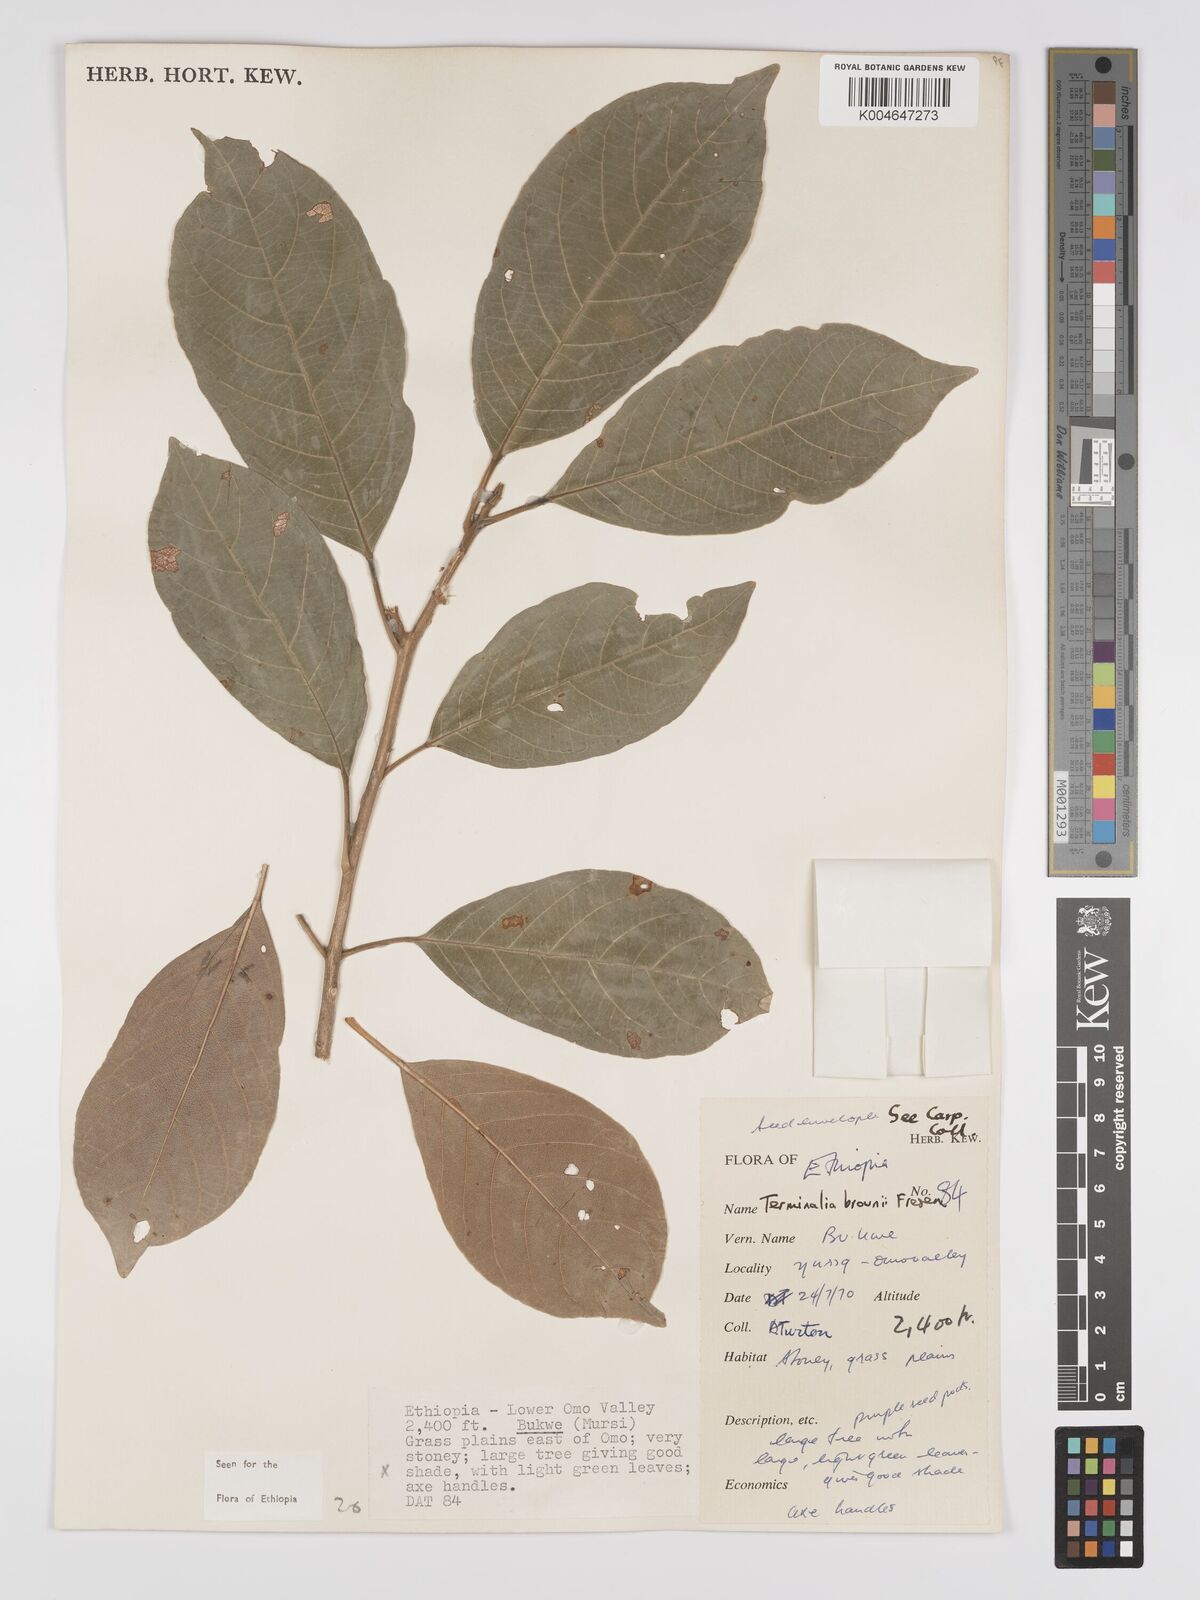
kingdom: Plantae
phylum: Tracheophyta
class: Magnoliopsida
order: Myrtales
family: Combretaceae
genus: Terminalia
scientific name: Terminalia brownii
